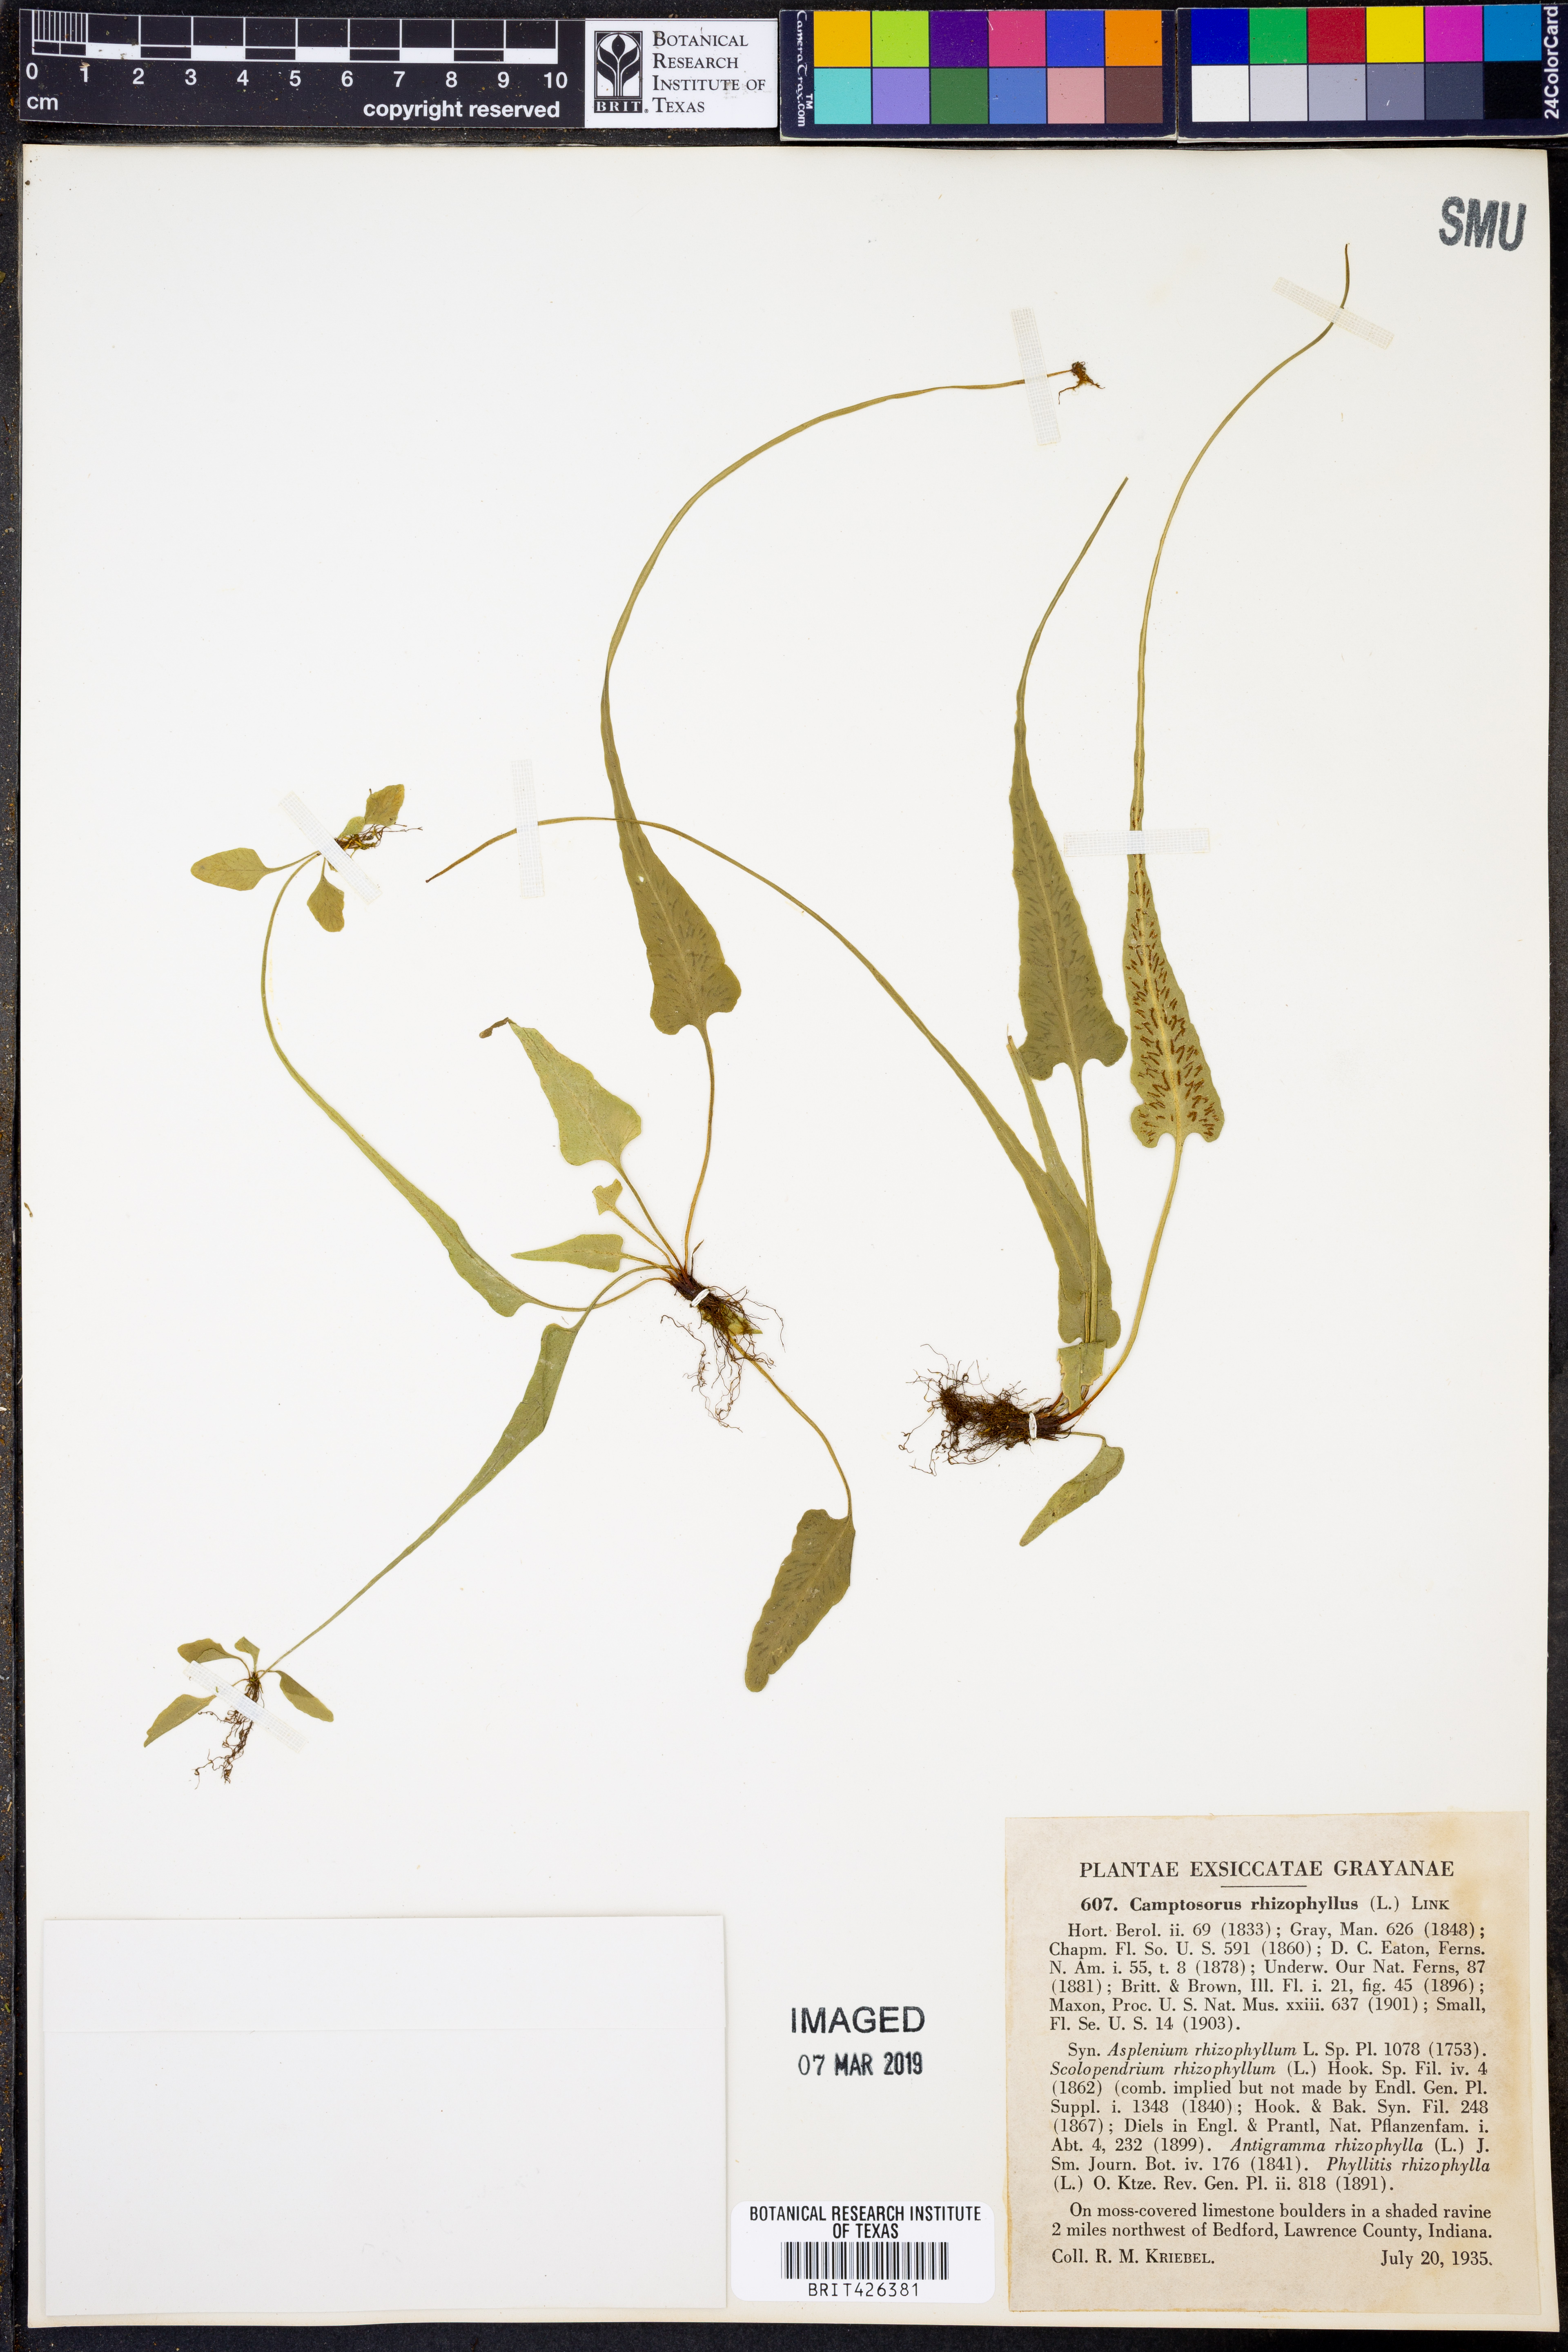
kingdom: Plantae
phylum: Tracheophyta
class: Polypodiopsida
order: Polypodiales
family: Aspleniaceae
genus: Asplenium
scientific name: Asplenium rhizophyllum
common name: Walking fern
